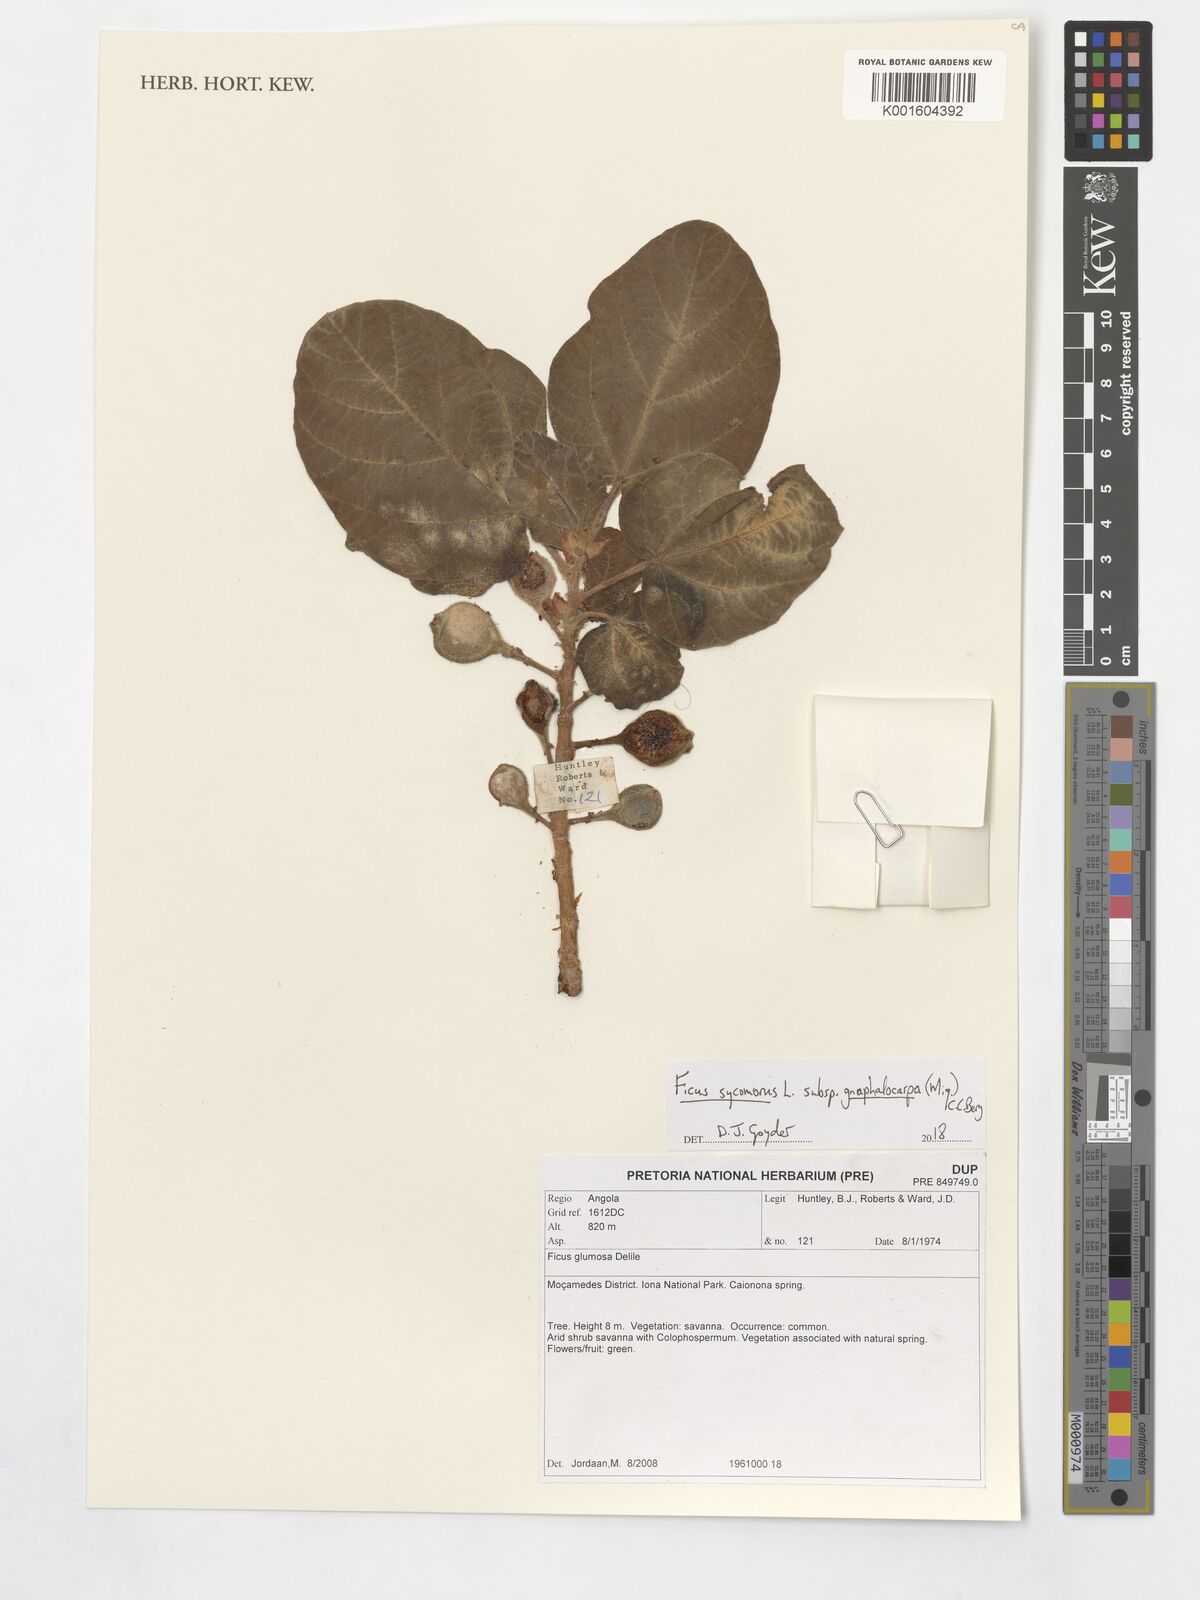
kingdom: Plantae
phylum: Tracheophyta
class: Magnoliopsida
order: Rosales
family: Moraceae
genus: Ficus
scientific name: Ficus glumosa
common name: Hairy rock fig
